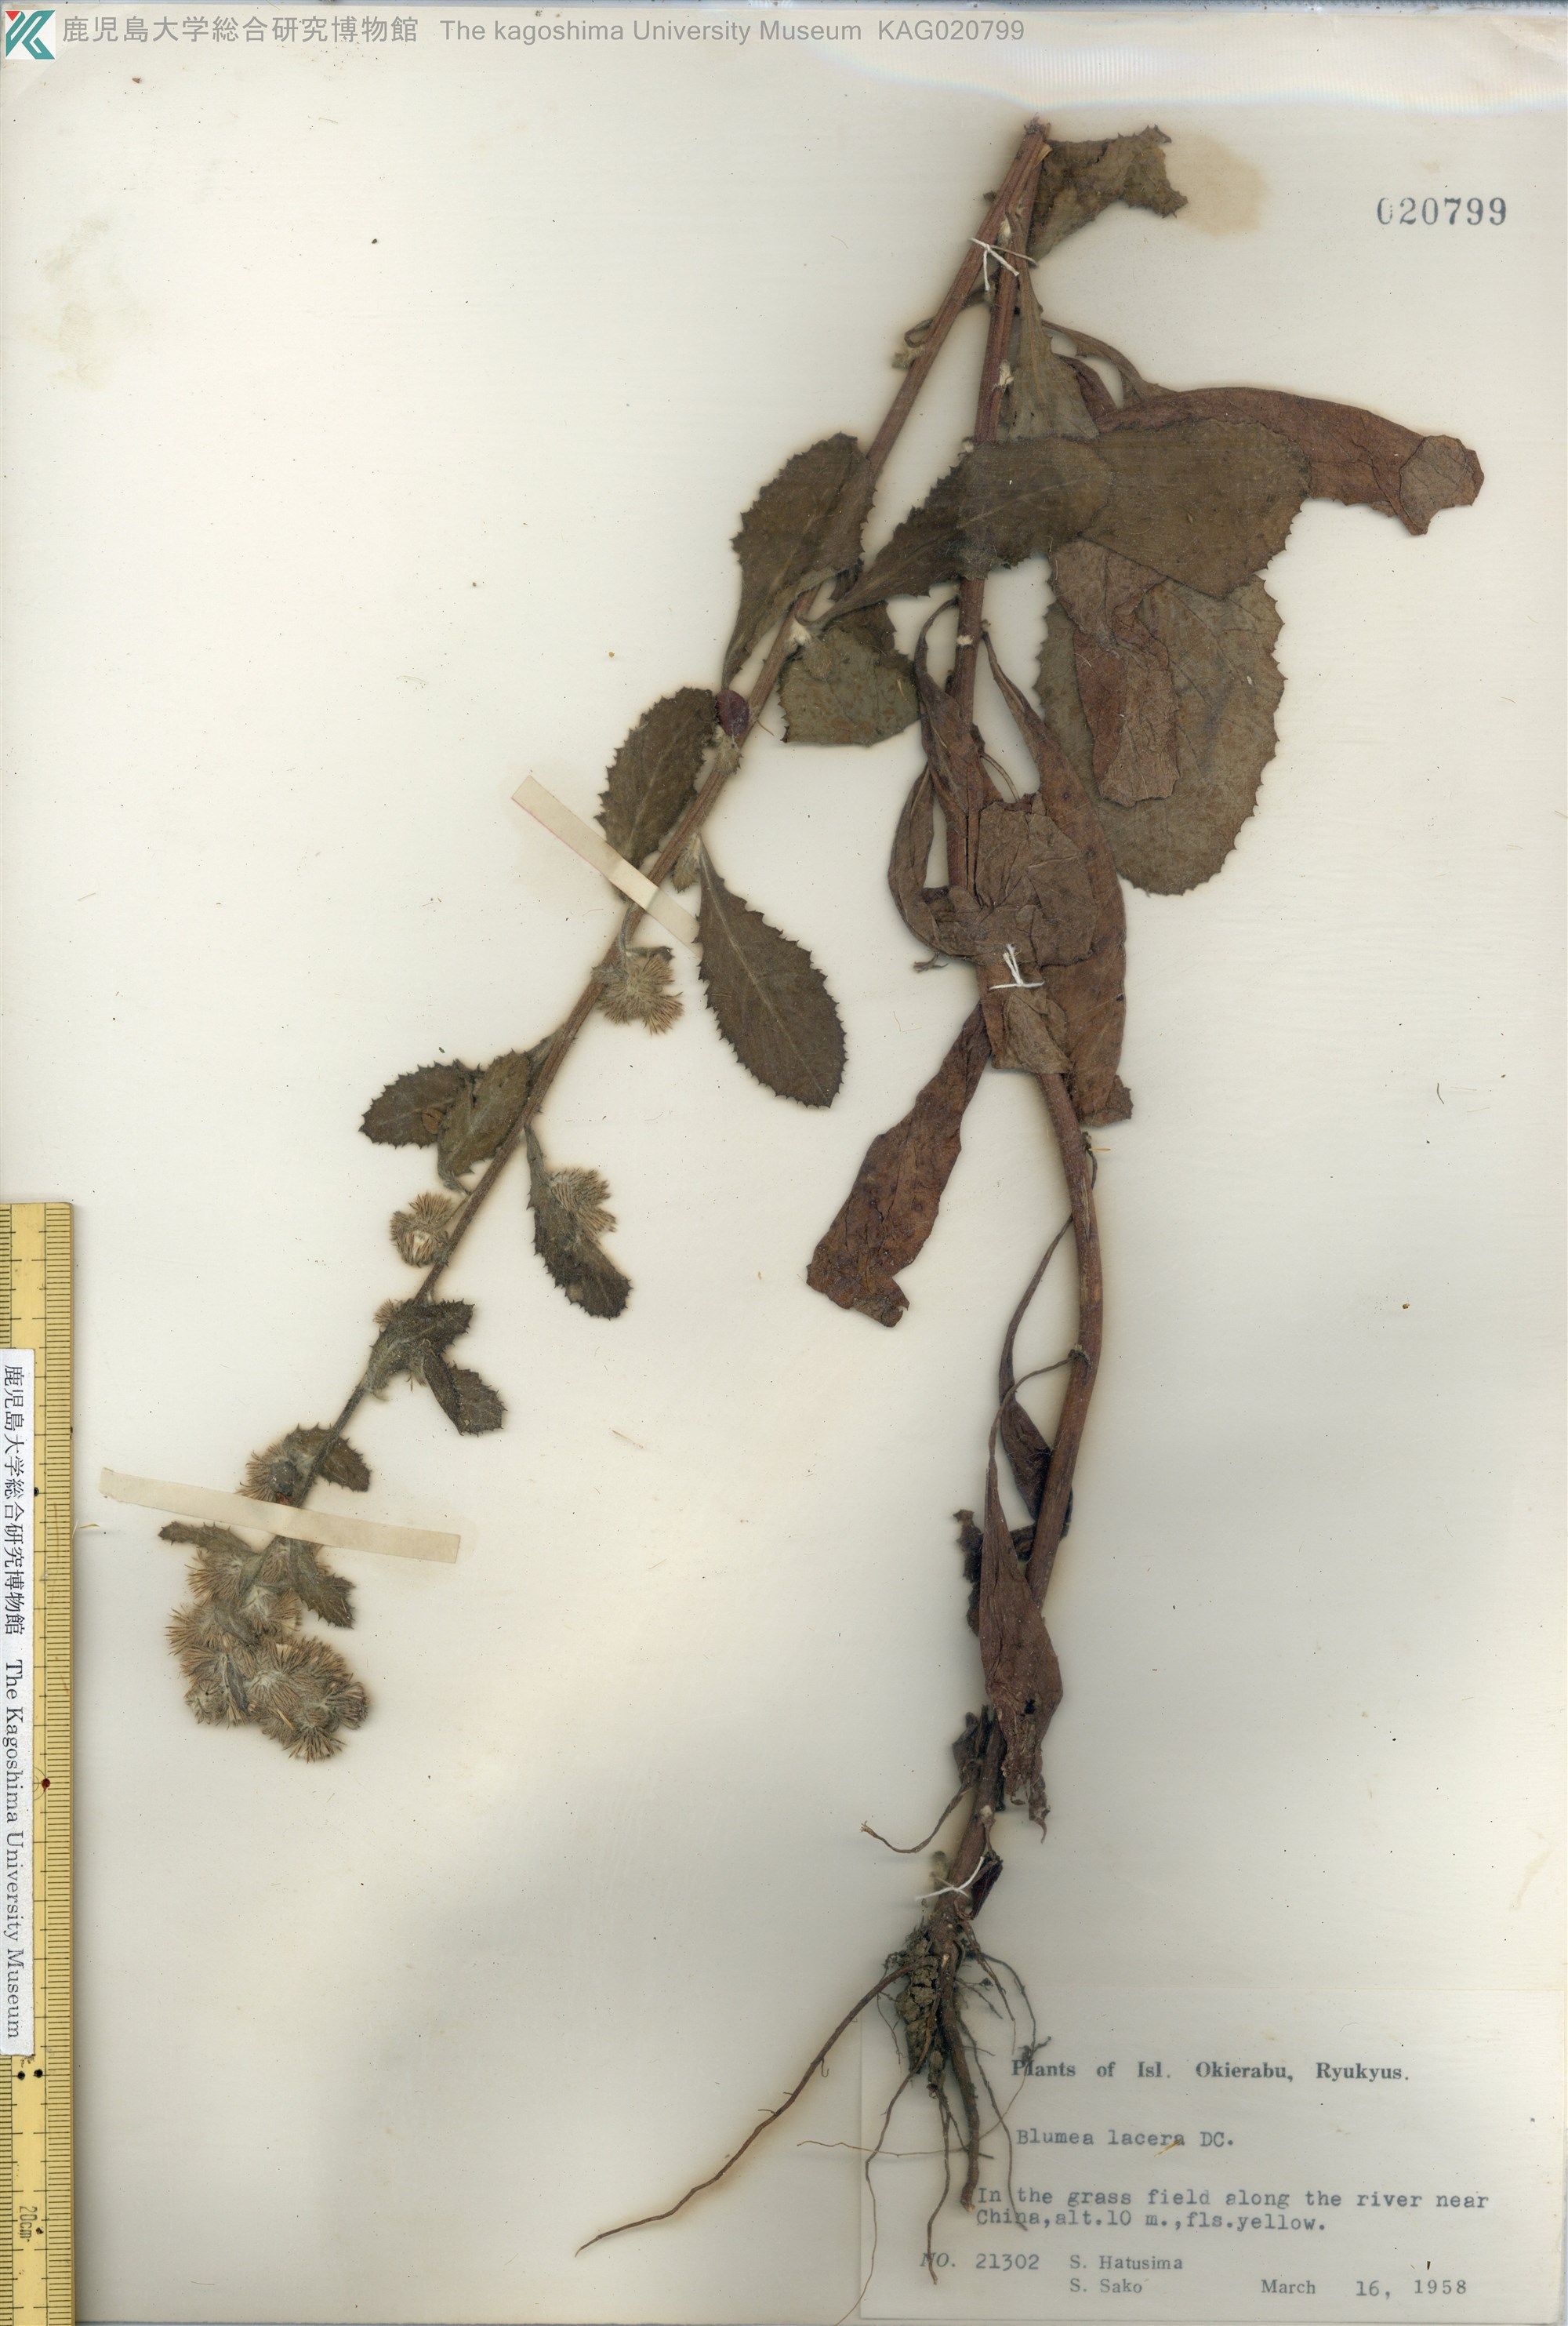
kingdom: Plantae
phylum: Tracheophyta
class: Magnoliopsida
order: Asterales
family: Asteraceae
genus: Blumea
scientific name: Blumea lacera
